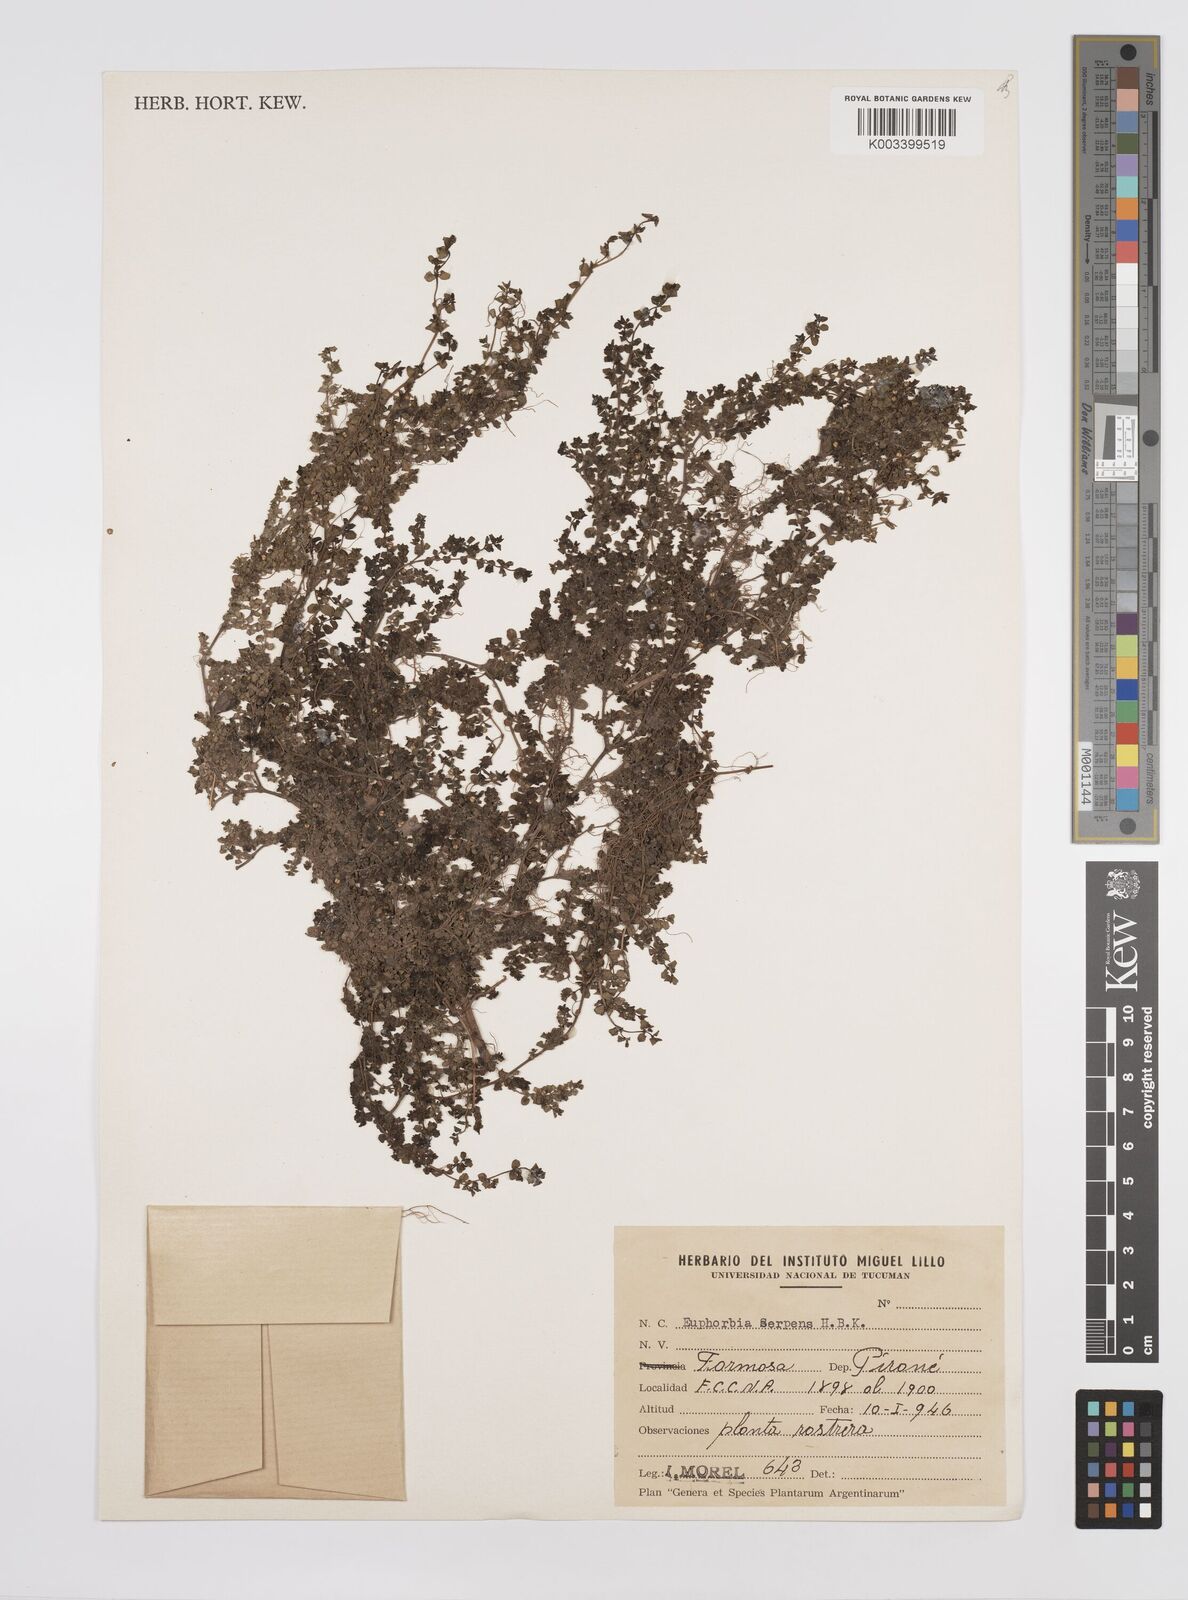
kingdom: Plantae
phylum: Tracheophyta
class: Magnoliopsida
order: Malpighiales
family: Euphorbiaceae
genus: Euphorbia
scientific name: Euphorbia
